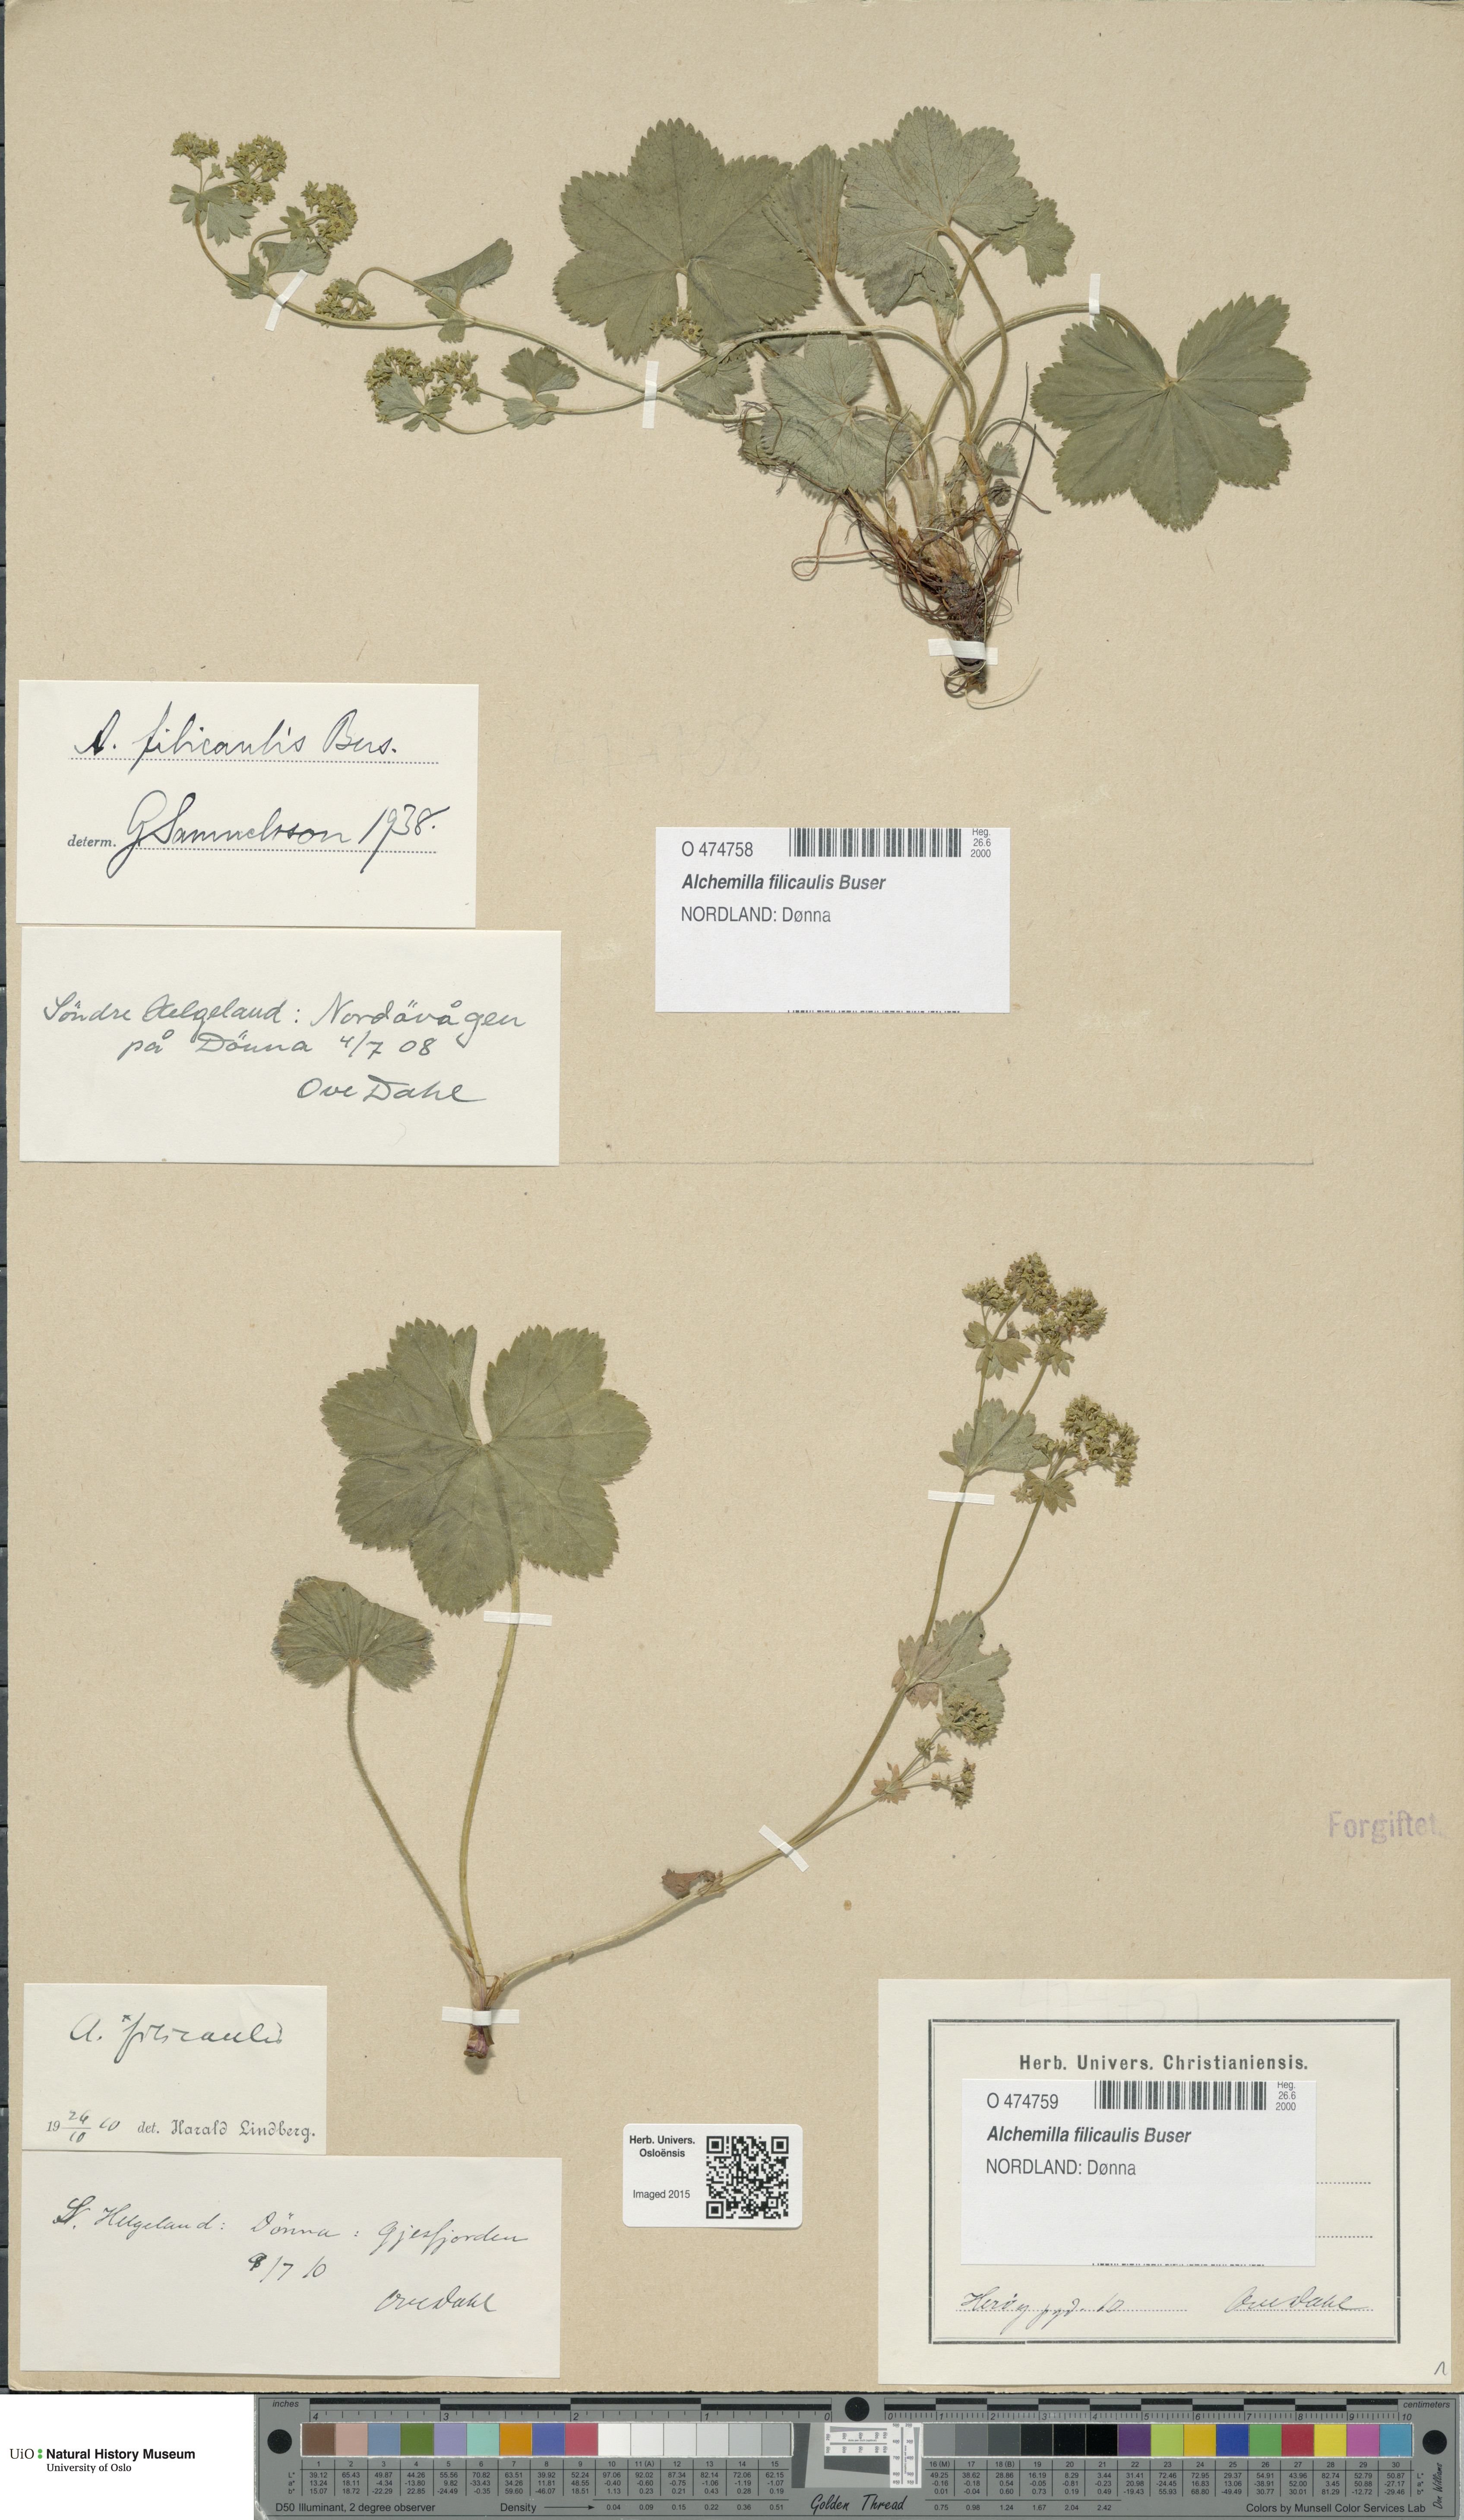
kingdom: Plantae
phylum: Tracheophyta
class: Magnoliopsida
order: Rosales
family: Rosaceae
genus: Alchemilla
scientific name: Alchemilla filicaulis
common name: Hairy lady's-mantle
